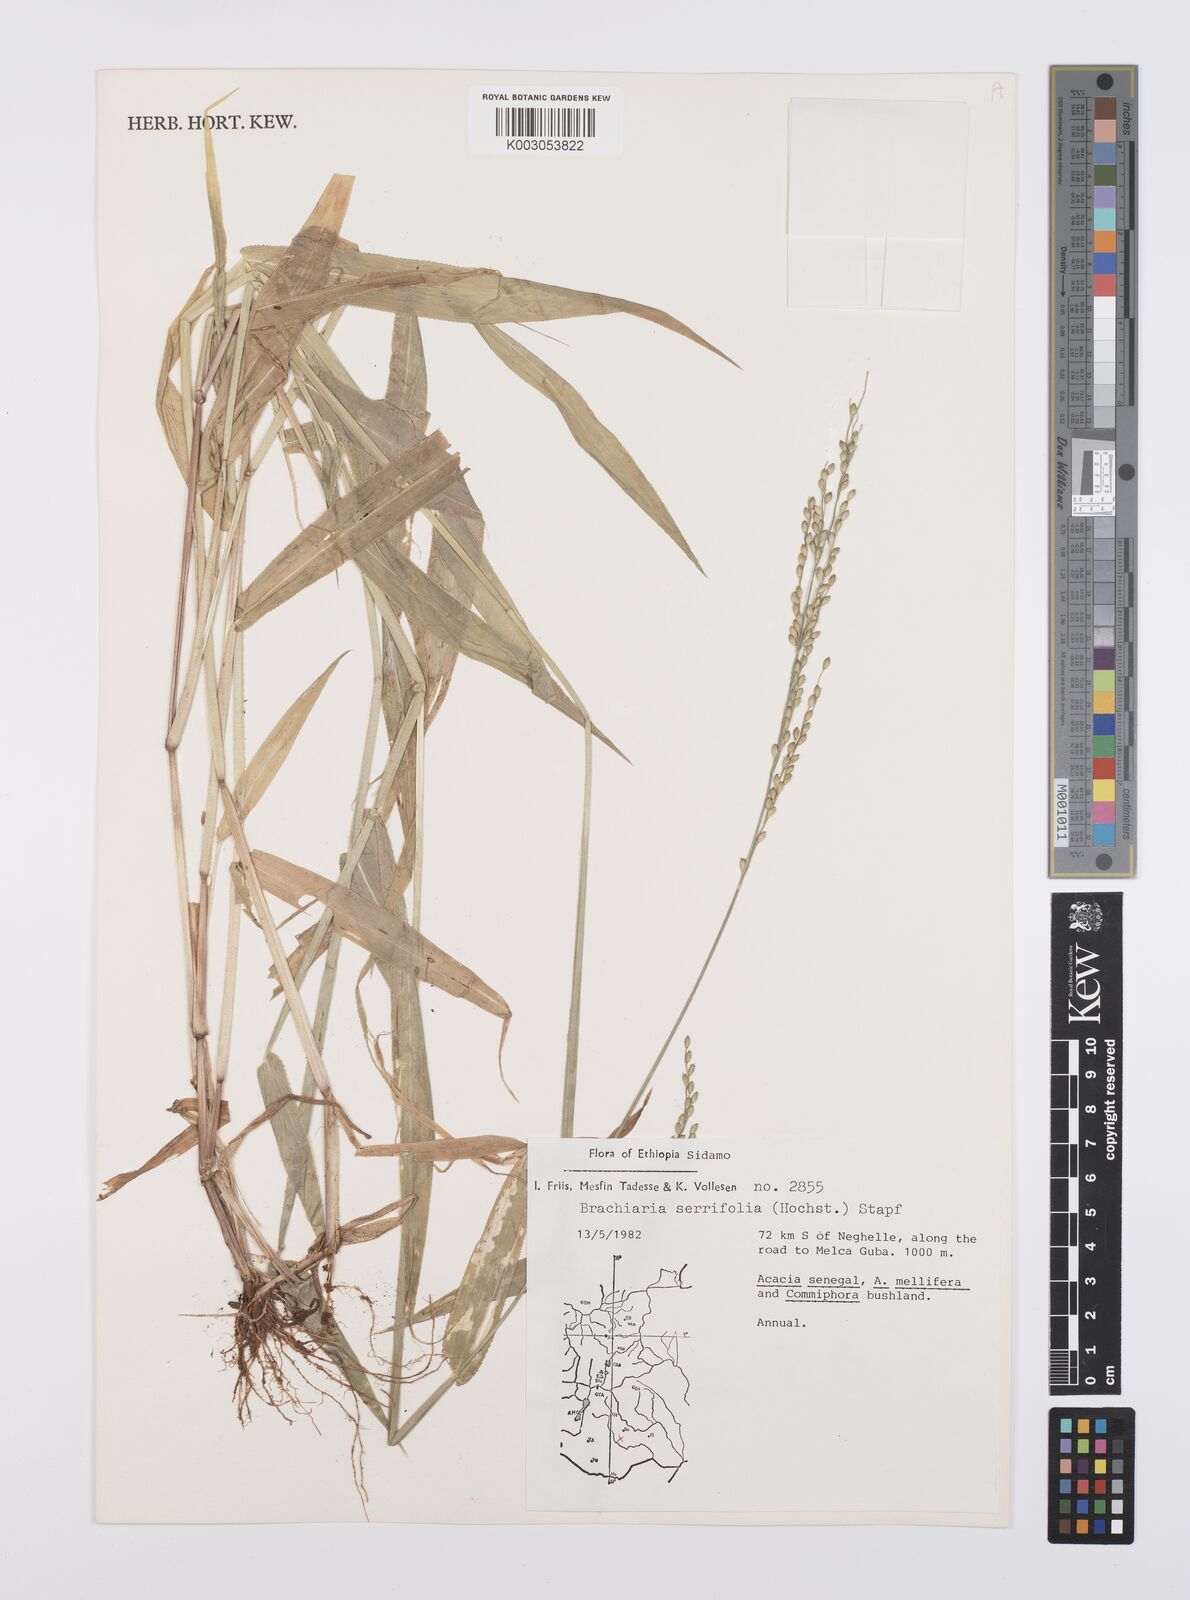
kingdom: Plantae
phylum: Tracheophyta
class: Liliopsida
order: Poales
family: Poaceae
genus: Urochloa
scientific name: Urochloa serrifolia
